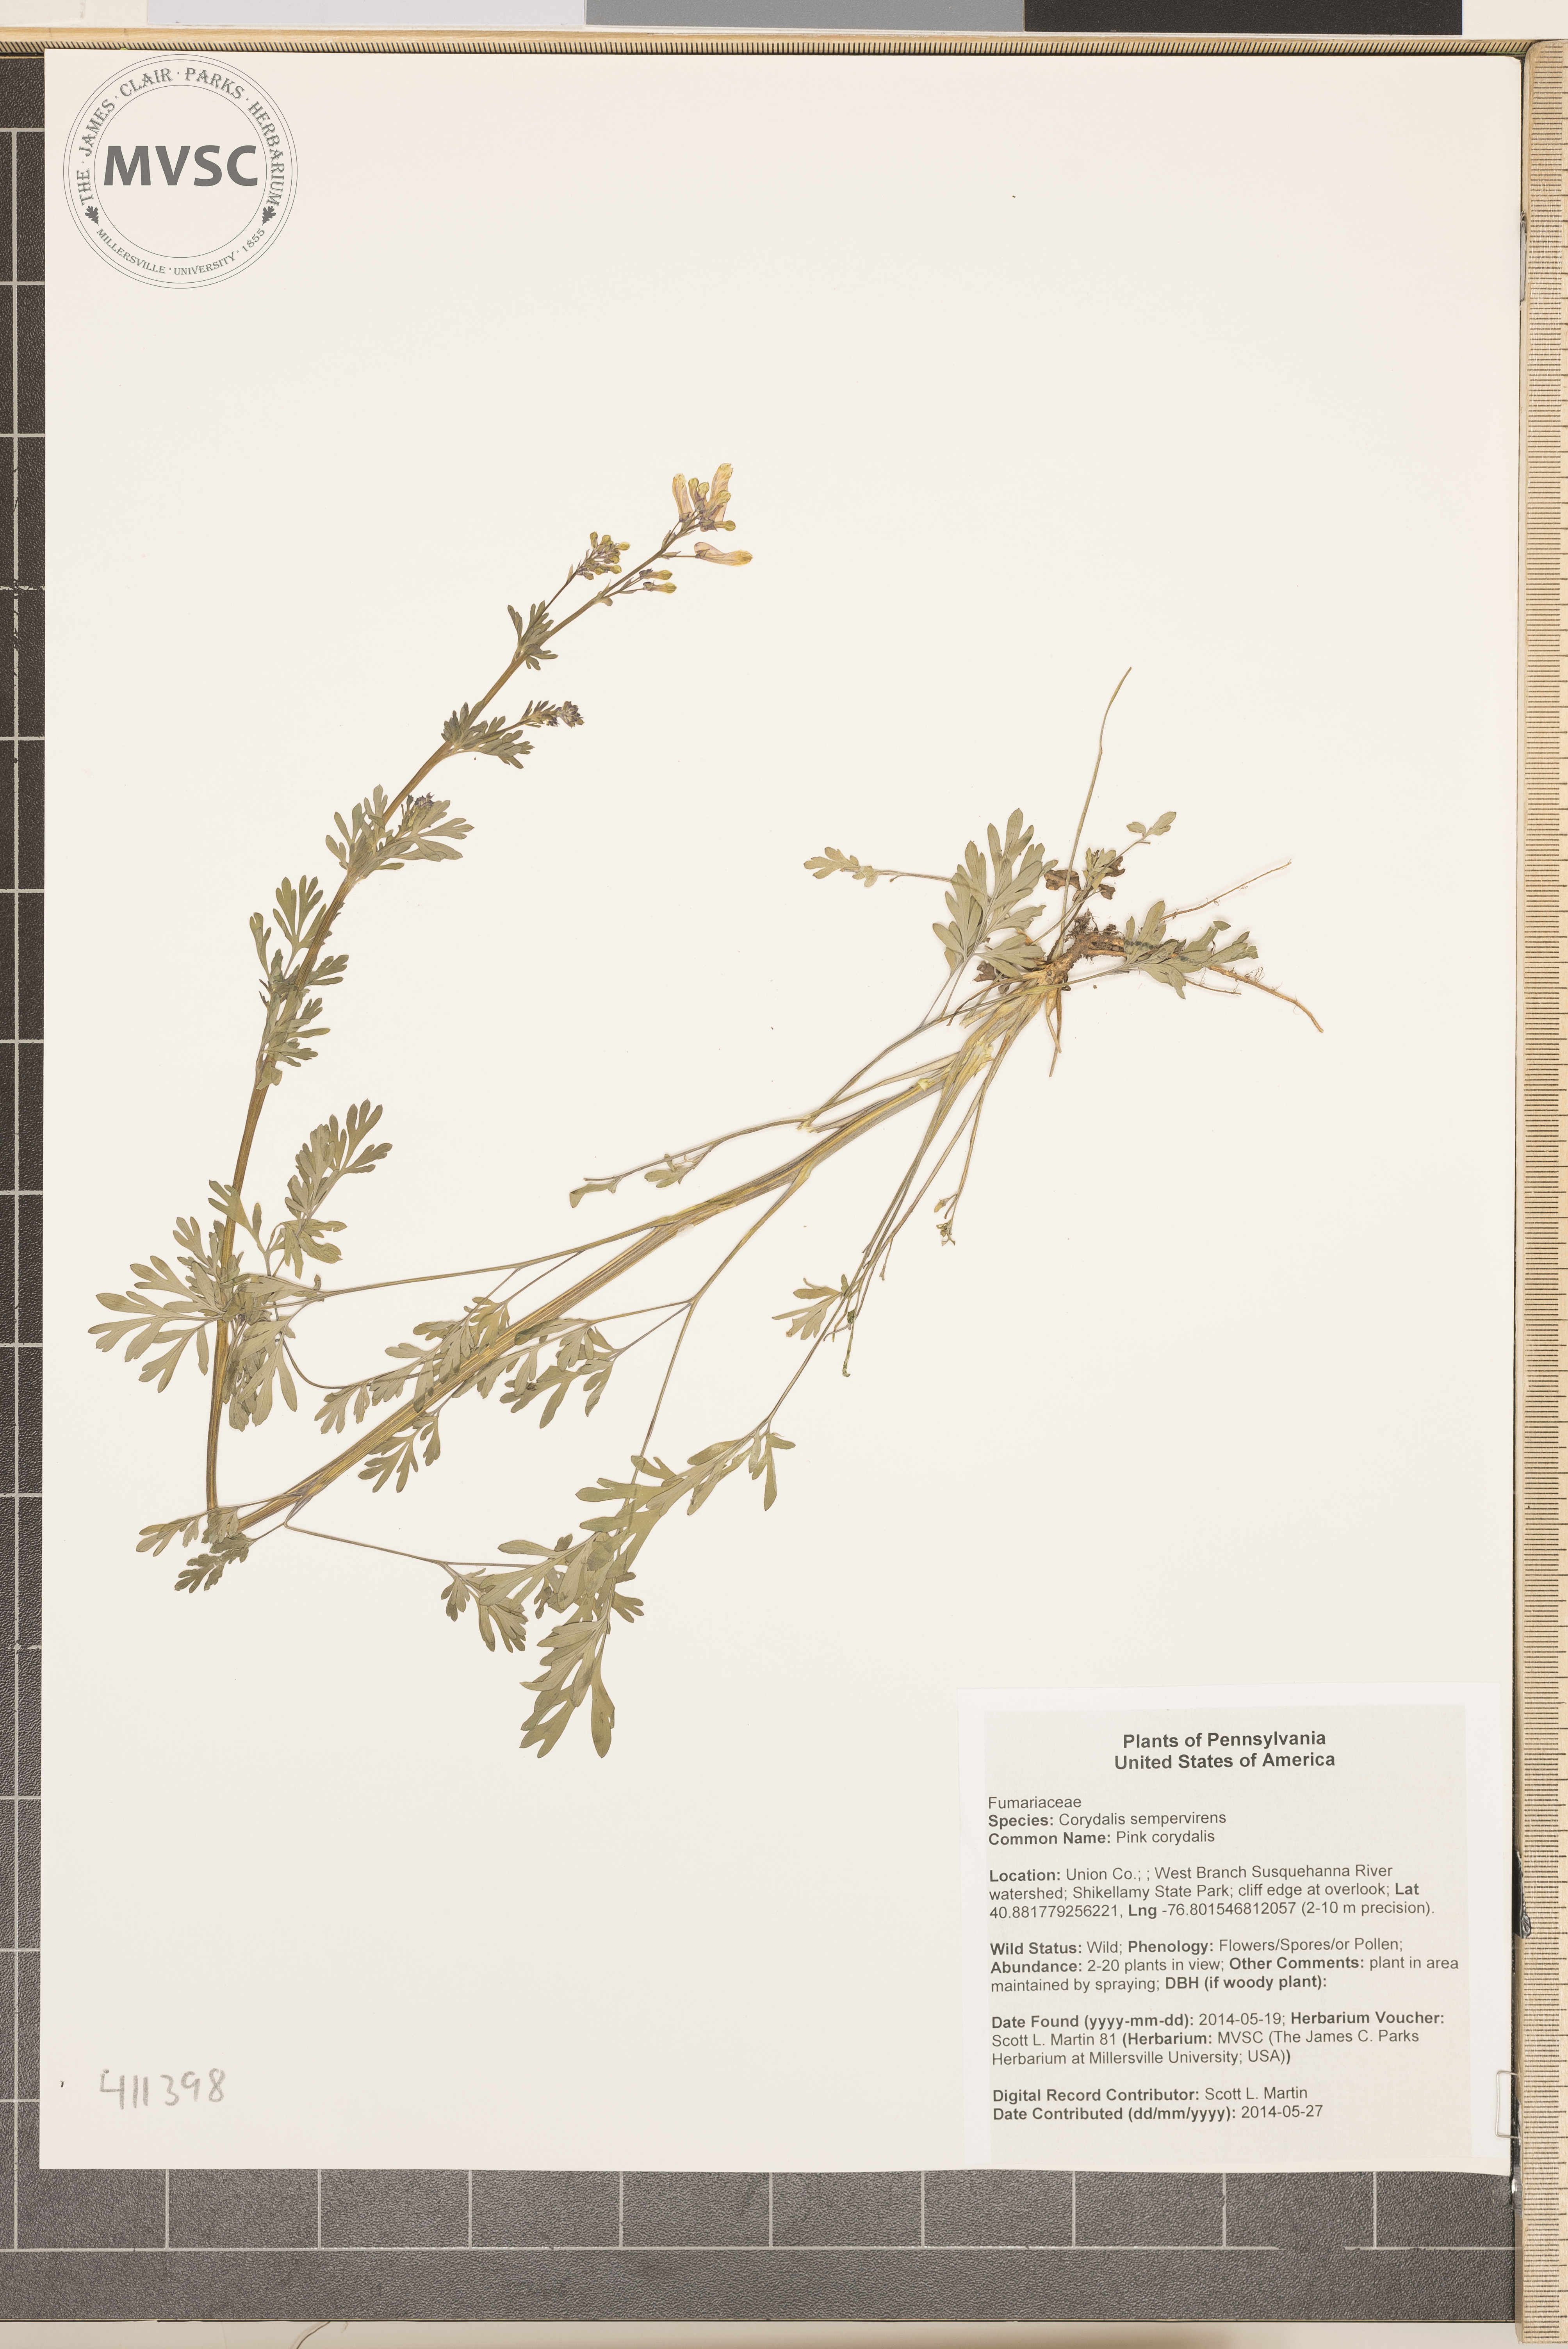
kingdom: Plantae
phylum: Tracheophyta
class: Magnoliopsida
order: Ranunculales
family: Papaveraceae
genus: Capnoides
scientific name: Capnoides sempervirens
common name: Pink corydalis
